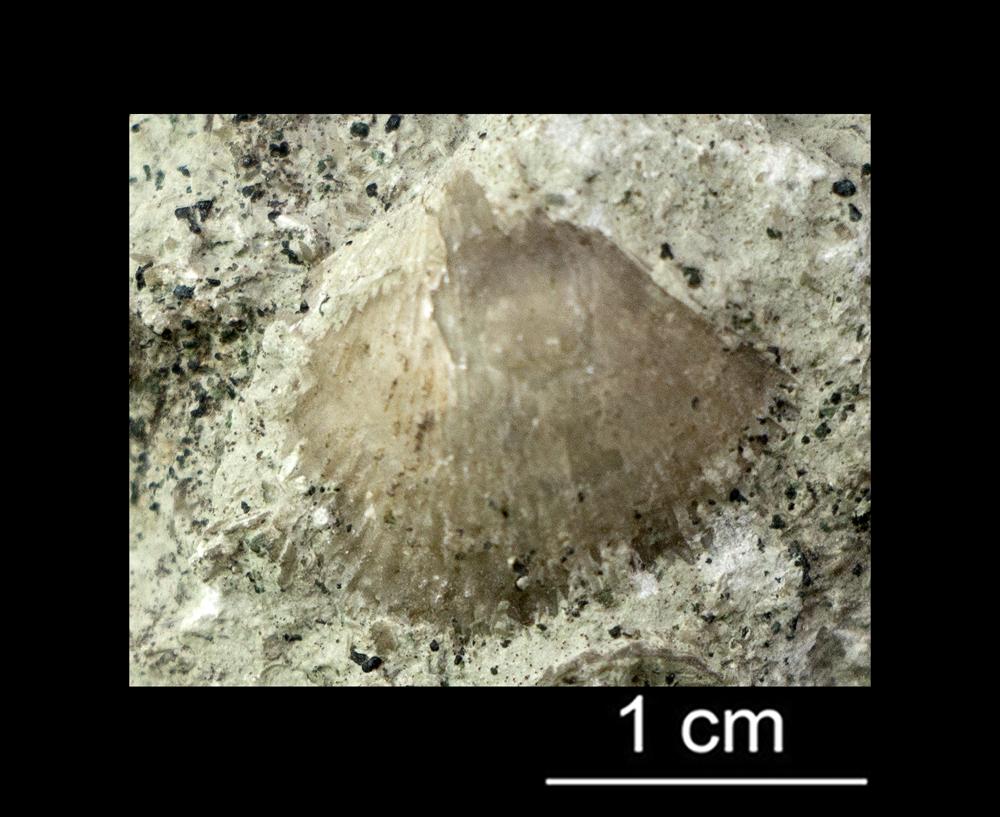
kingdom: Animalia
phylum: Brachiopoda
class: Rhynchonellata
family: Paurorthidae
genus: Paurorthis
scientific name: Paurorthis parva
